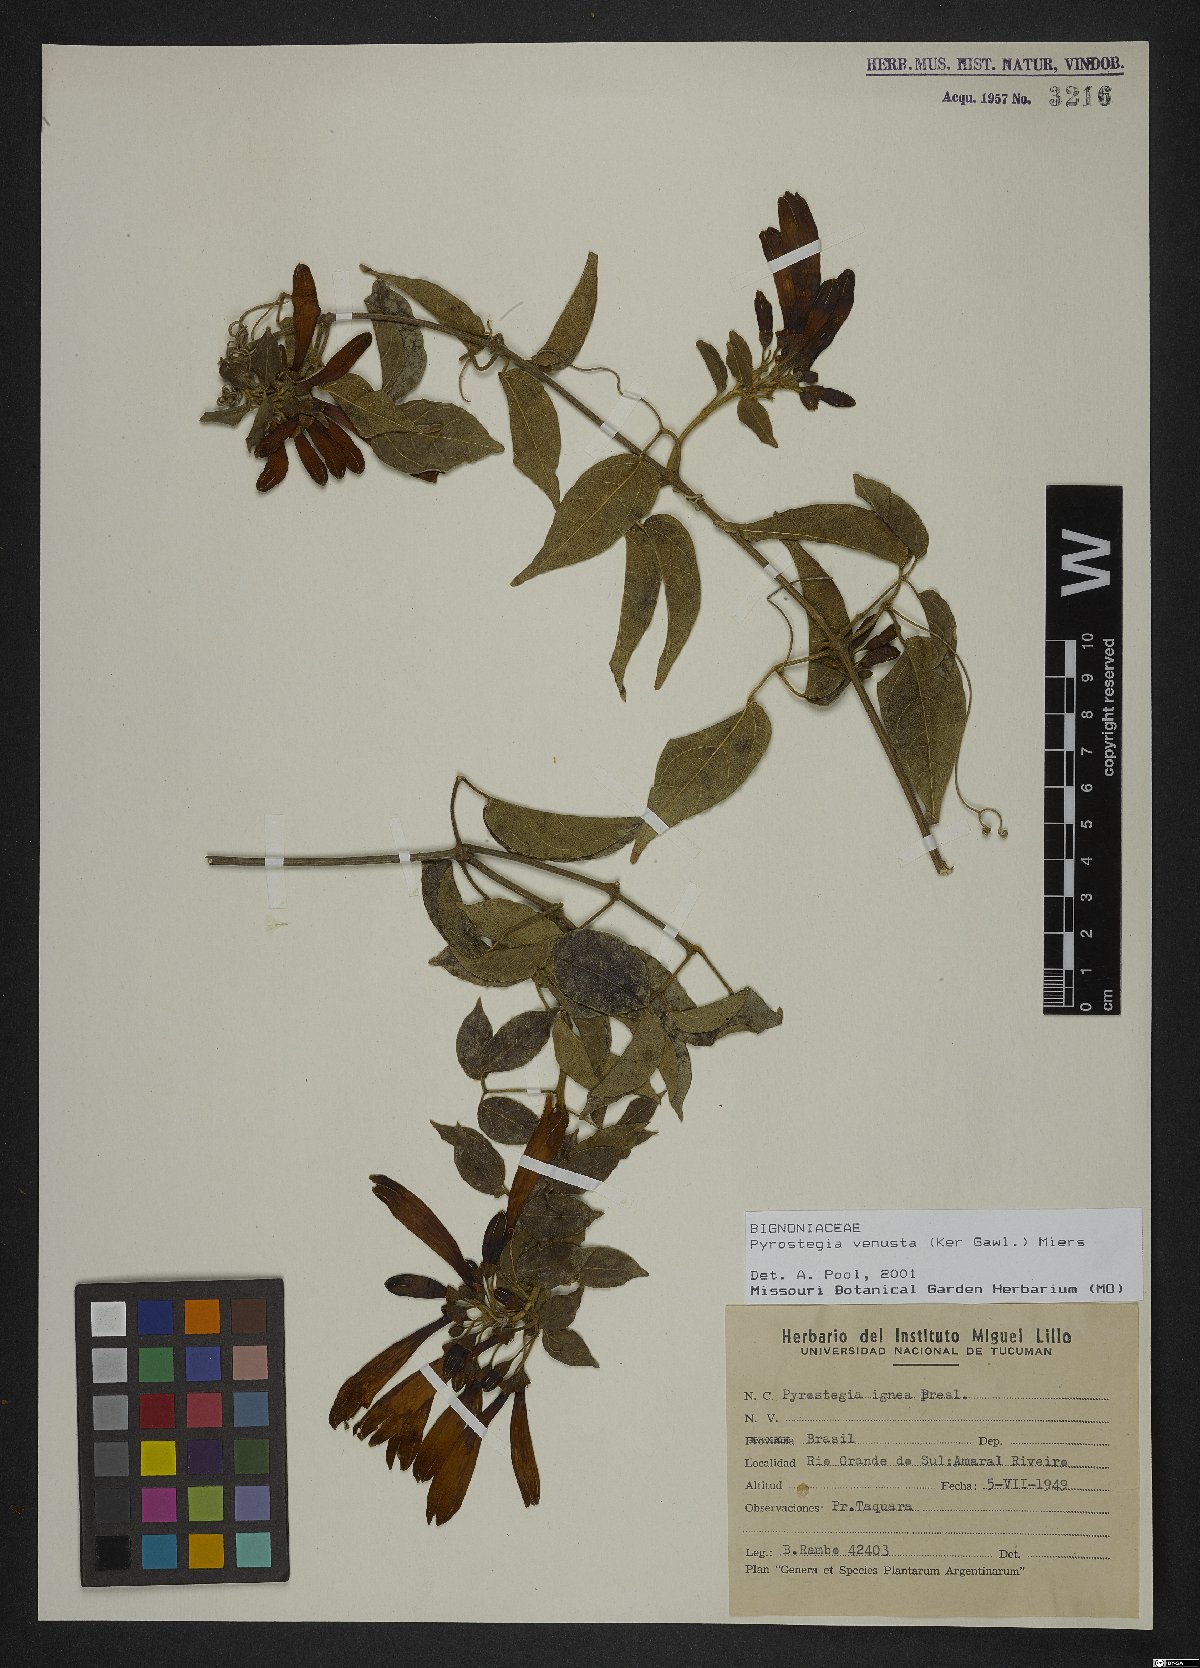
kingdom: Plantae
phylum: Tracheophyta
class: Magnoliopsida
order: Lamiales
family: Bignoniaceae
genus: Pyrostegia
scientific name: Pyrostegia venusta
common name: Flamevine
